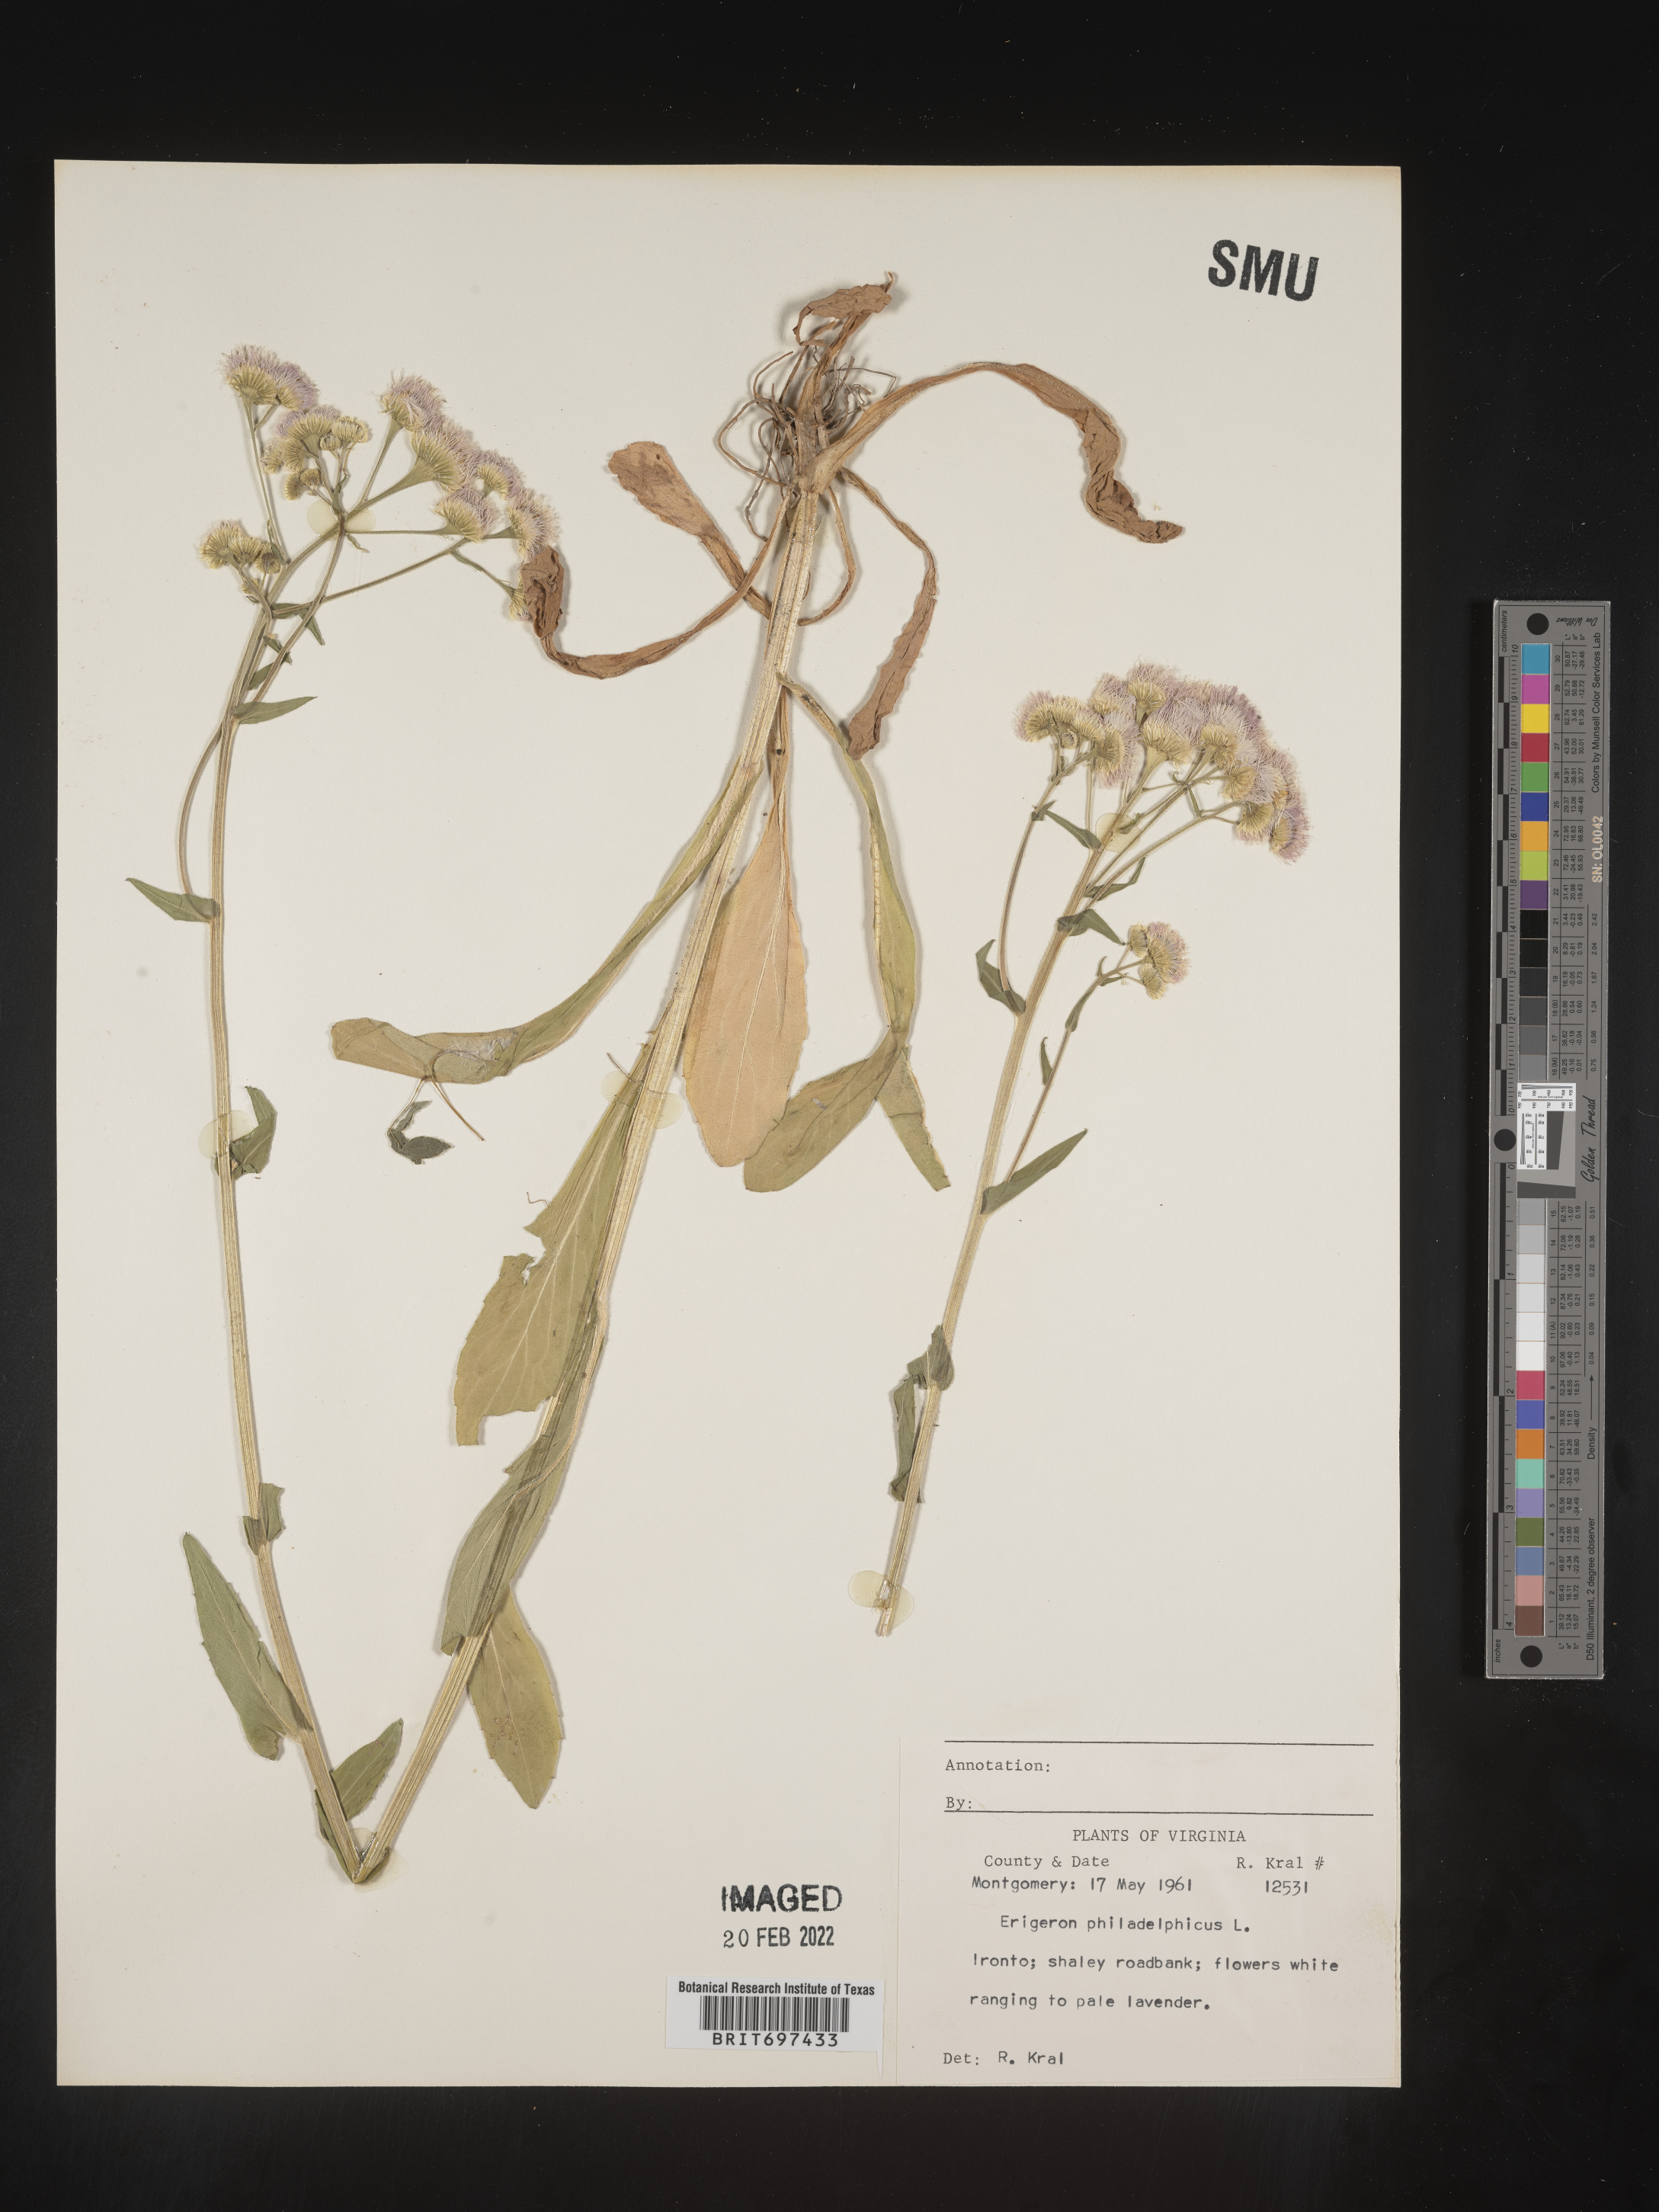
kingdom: Plantae
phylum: Tracheophyta
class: Magnoliopsida
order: Asterales
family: Asteraceae
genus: Erigeron
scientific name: Erigeron philadelphicus
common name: Robin's-plantain
